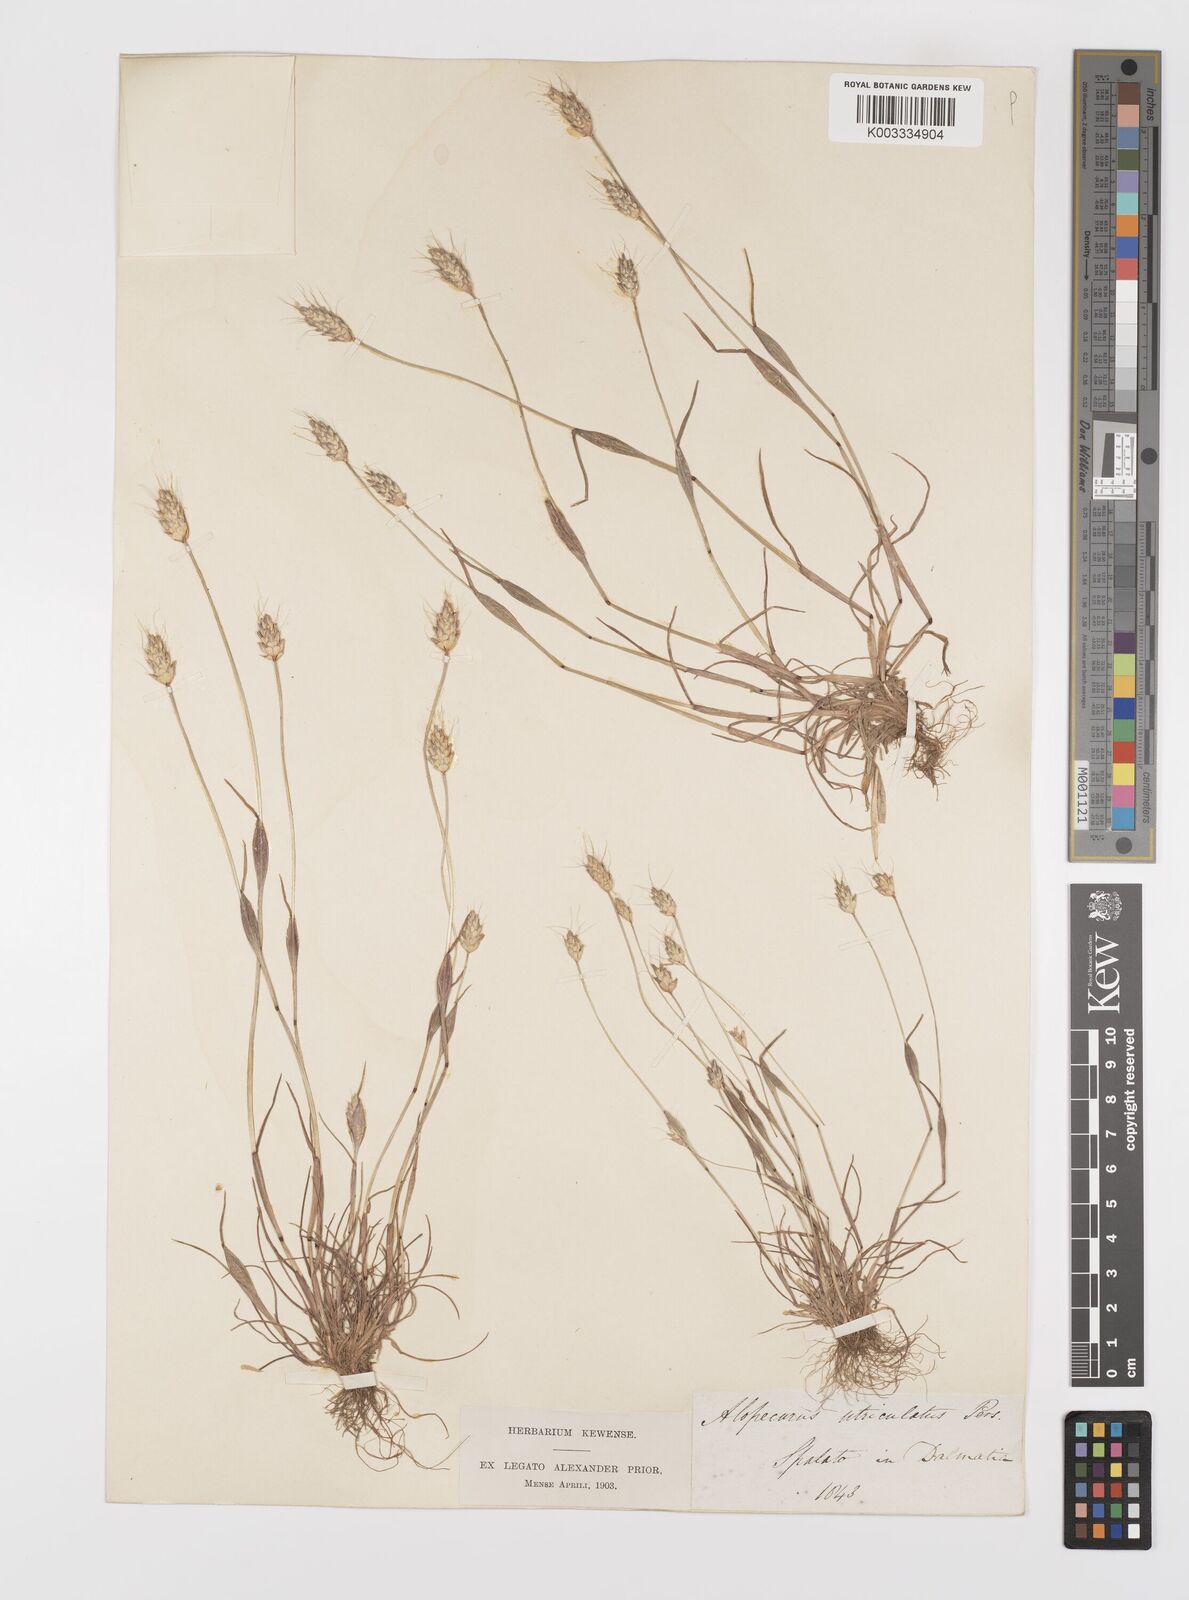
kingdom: Plantae
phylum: Tracheophyta
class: Liliopsida
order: Poales
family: Poaceae
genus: Alopecurus
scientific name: Alopecurus rendlei
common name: Rendle's meadow foxtail
